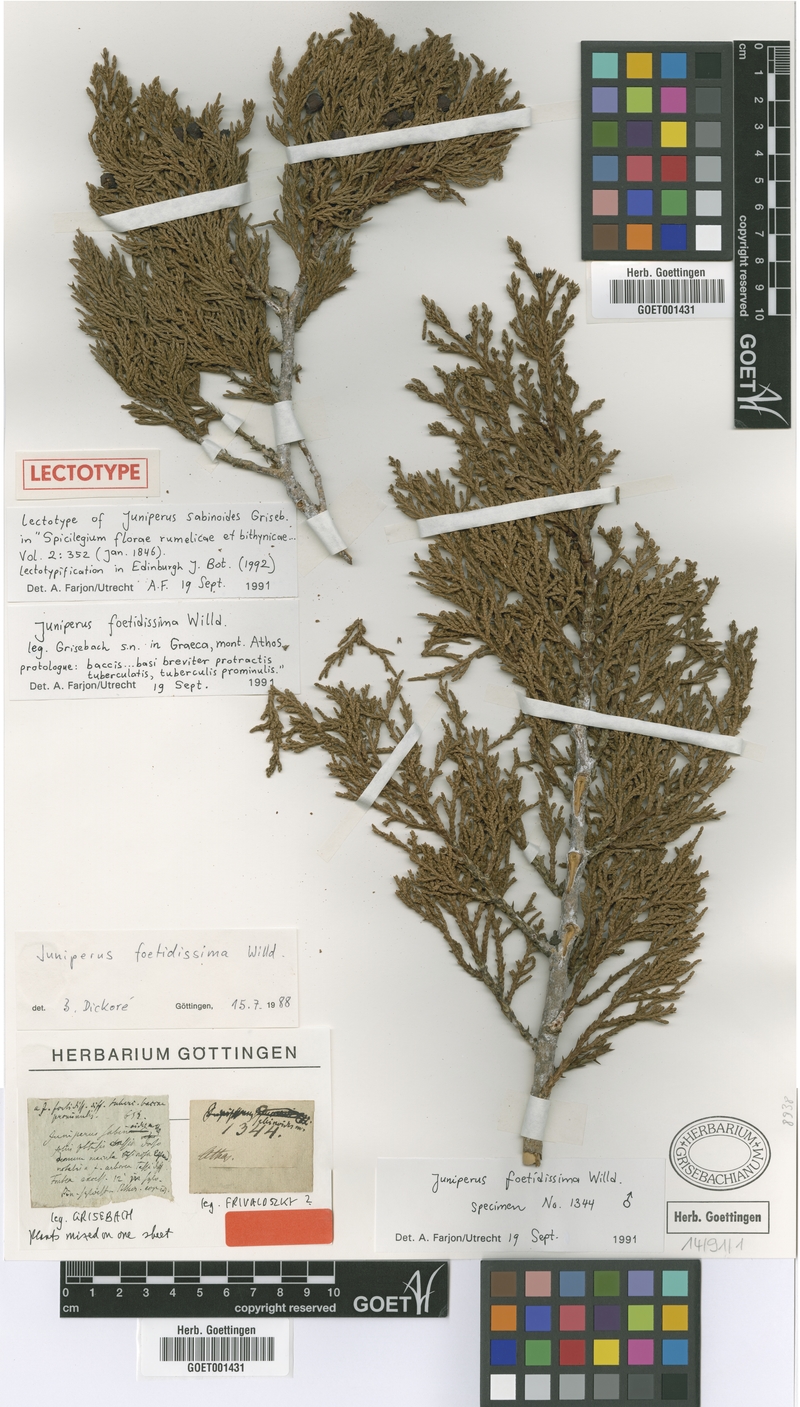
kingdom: Plantae
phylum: Tracheophyta
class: Pinopsida
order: Pinales
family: Cupressaceae
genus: Juniperus
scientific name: Juniperus foetidissima
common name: Stinking juniper
